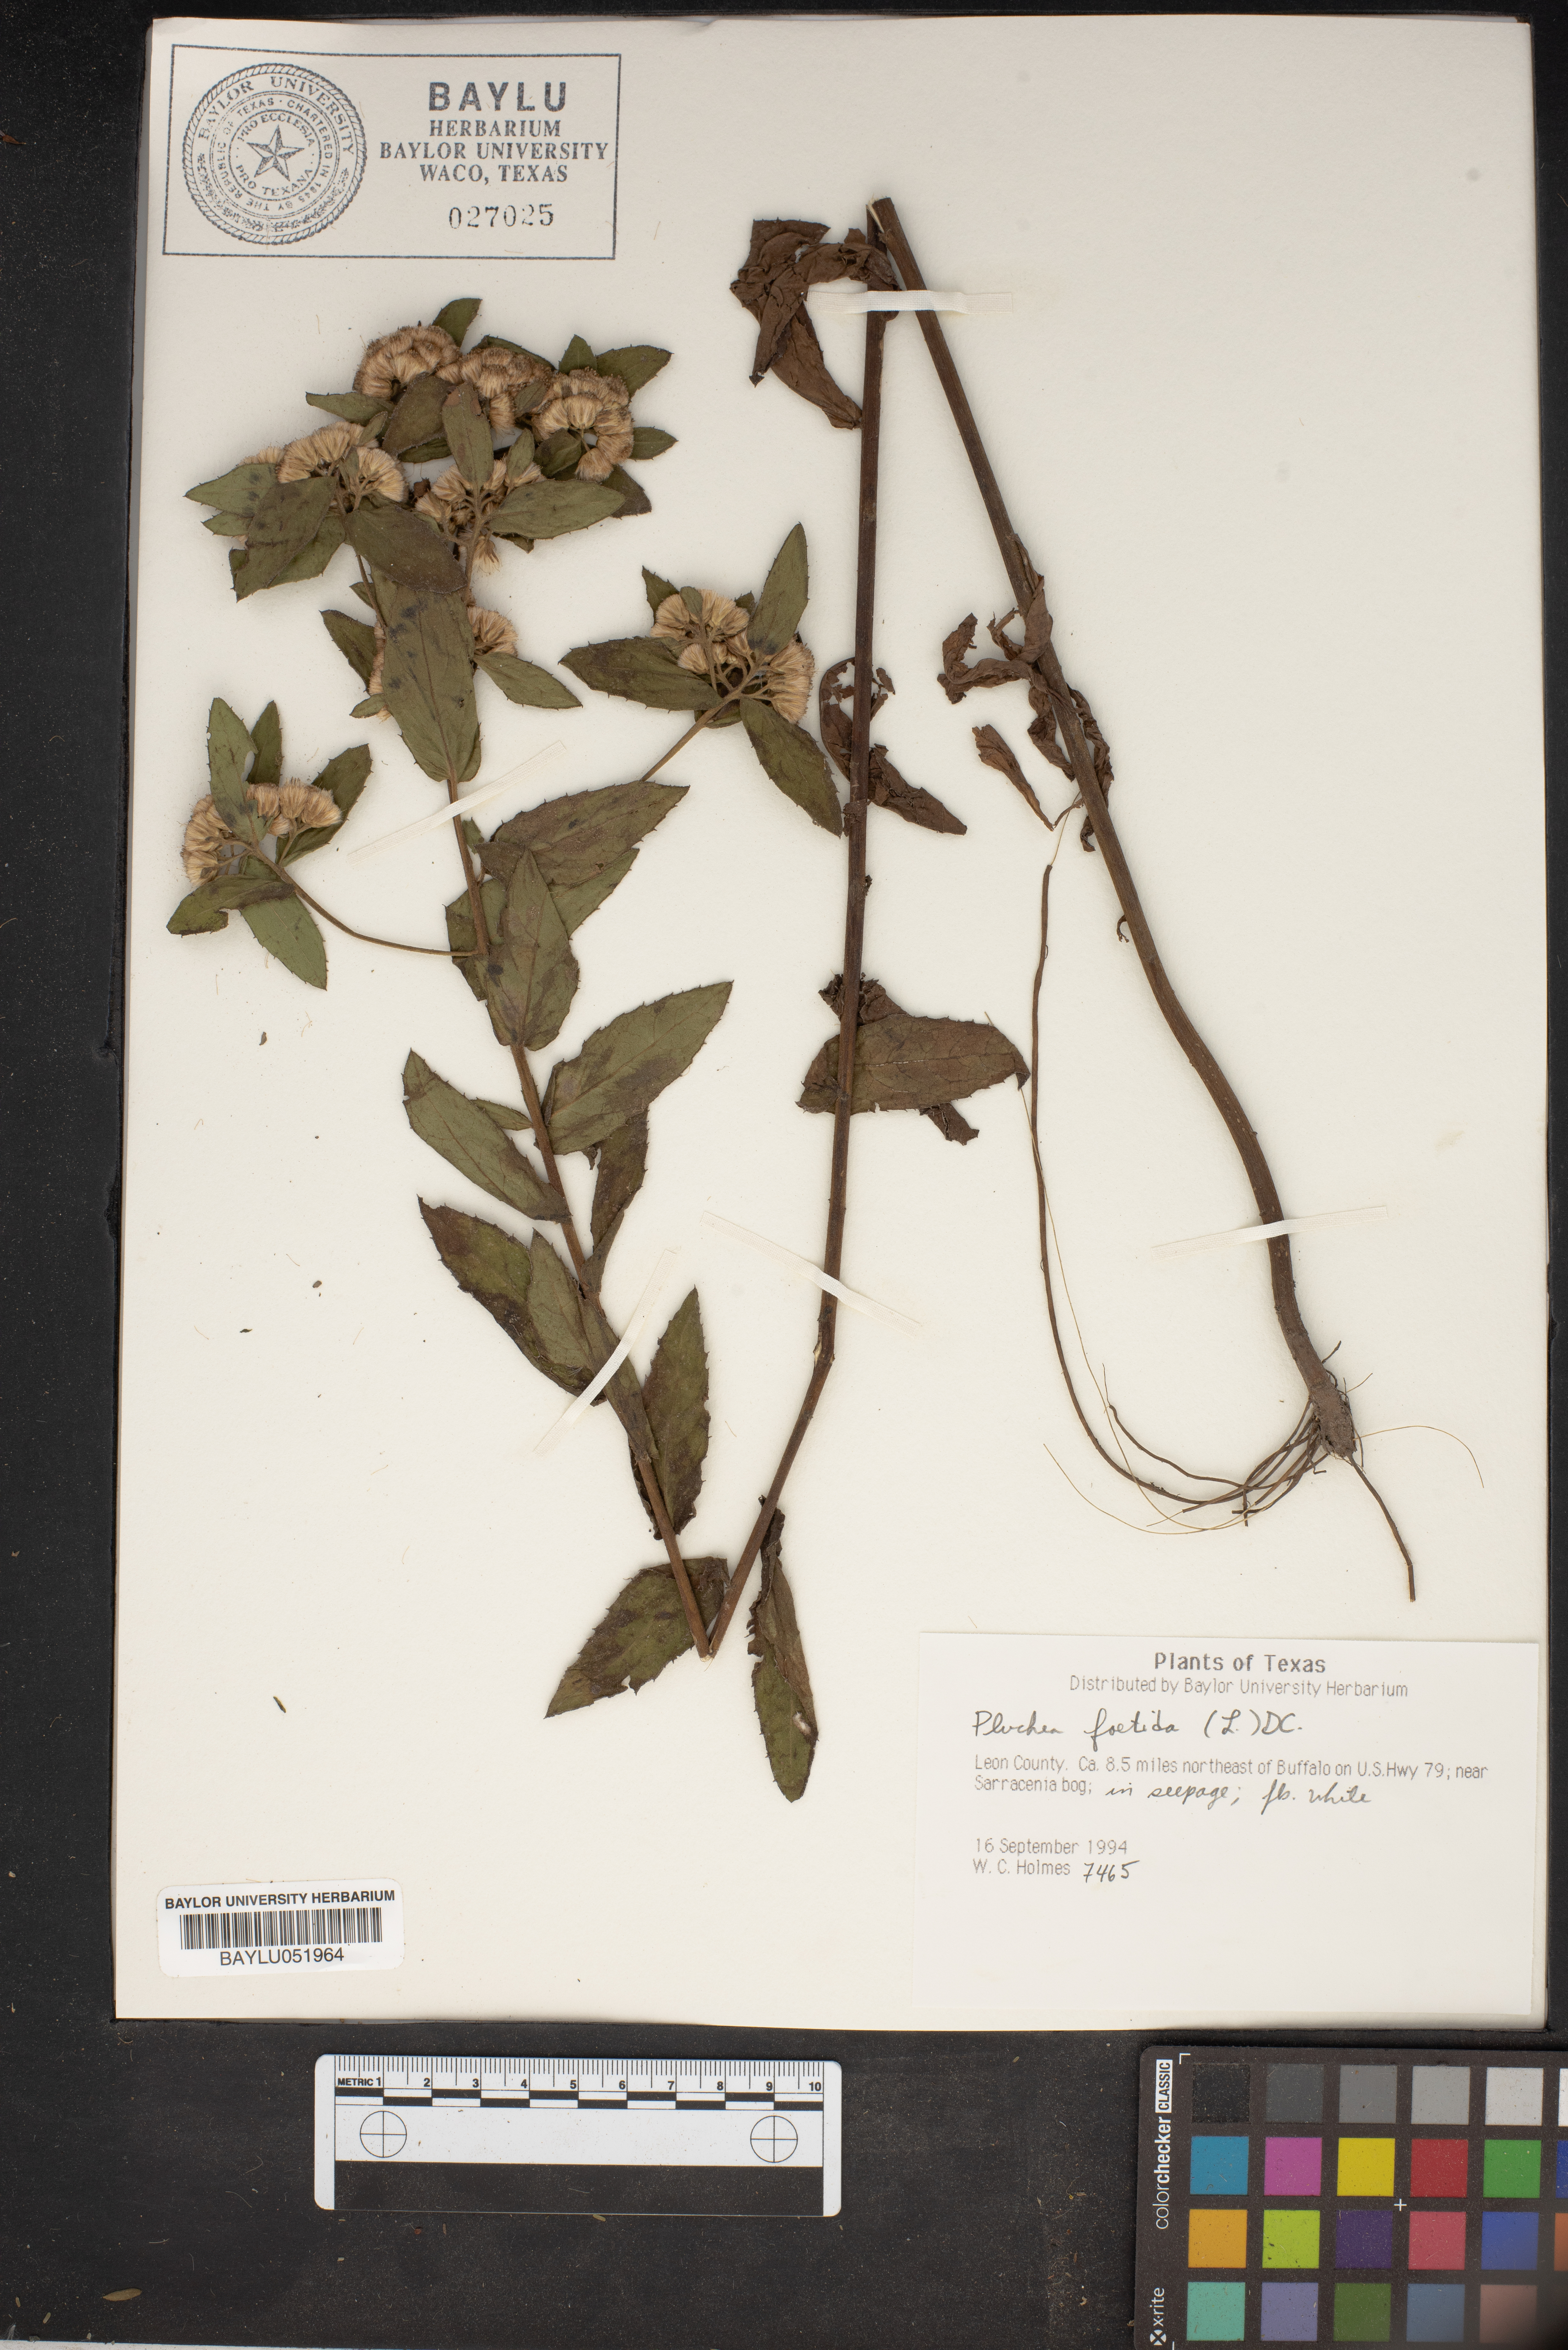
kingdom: Plantae
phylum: Tracheophyta
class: Magnoliopsida
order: Asterales
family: Asteraceae
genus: Pluchea
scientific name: Pluchea foetida
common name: Stinking camphorweed
